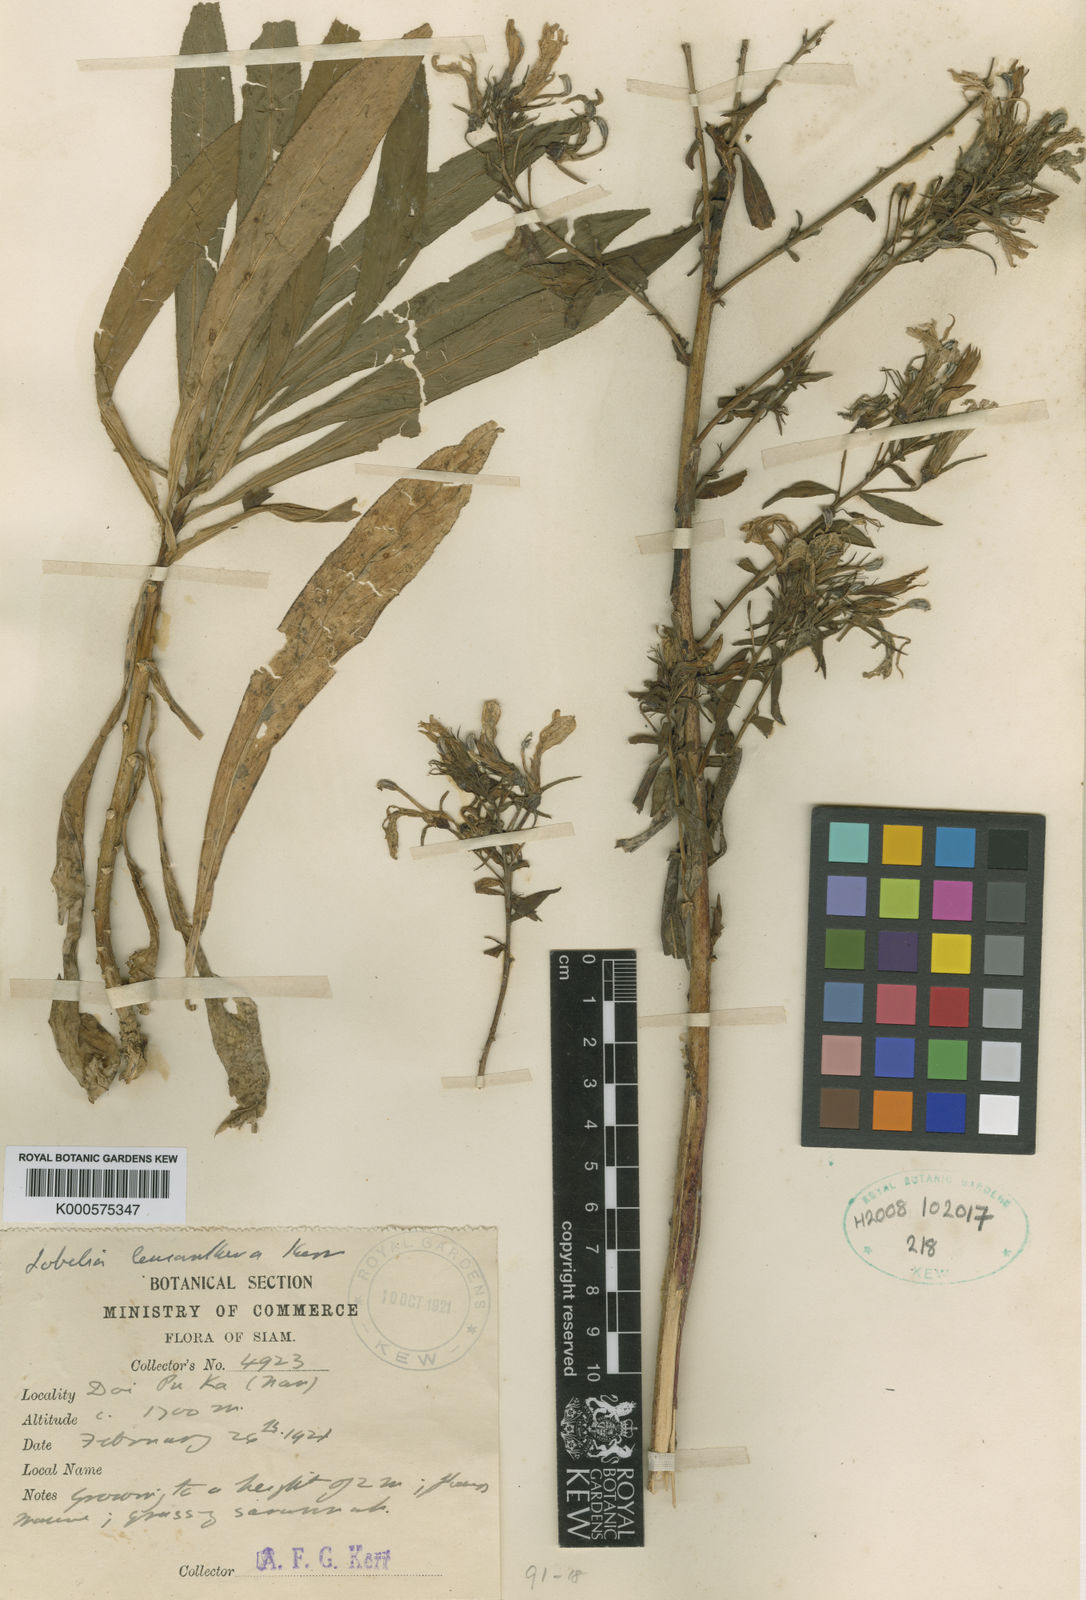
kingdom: Plantae
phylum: Tracheophyta
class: Magnoliopsida
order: Asterales
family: Campanulaceae
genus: Lobelia
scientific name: Lobelia
